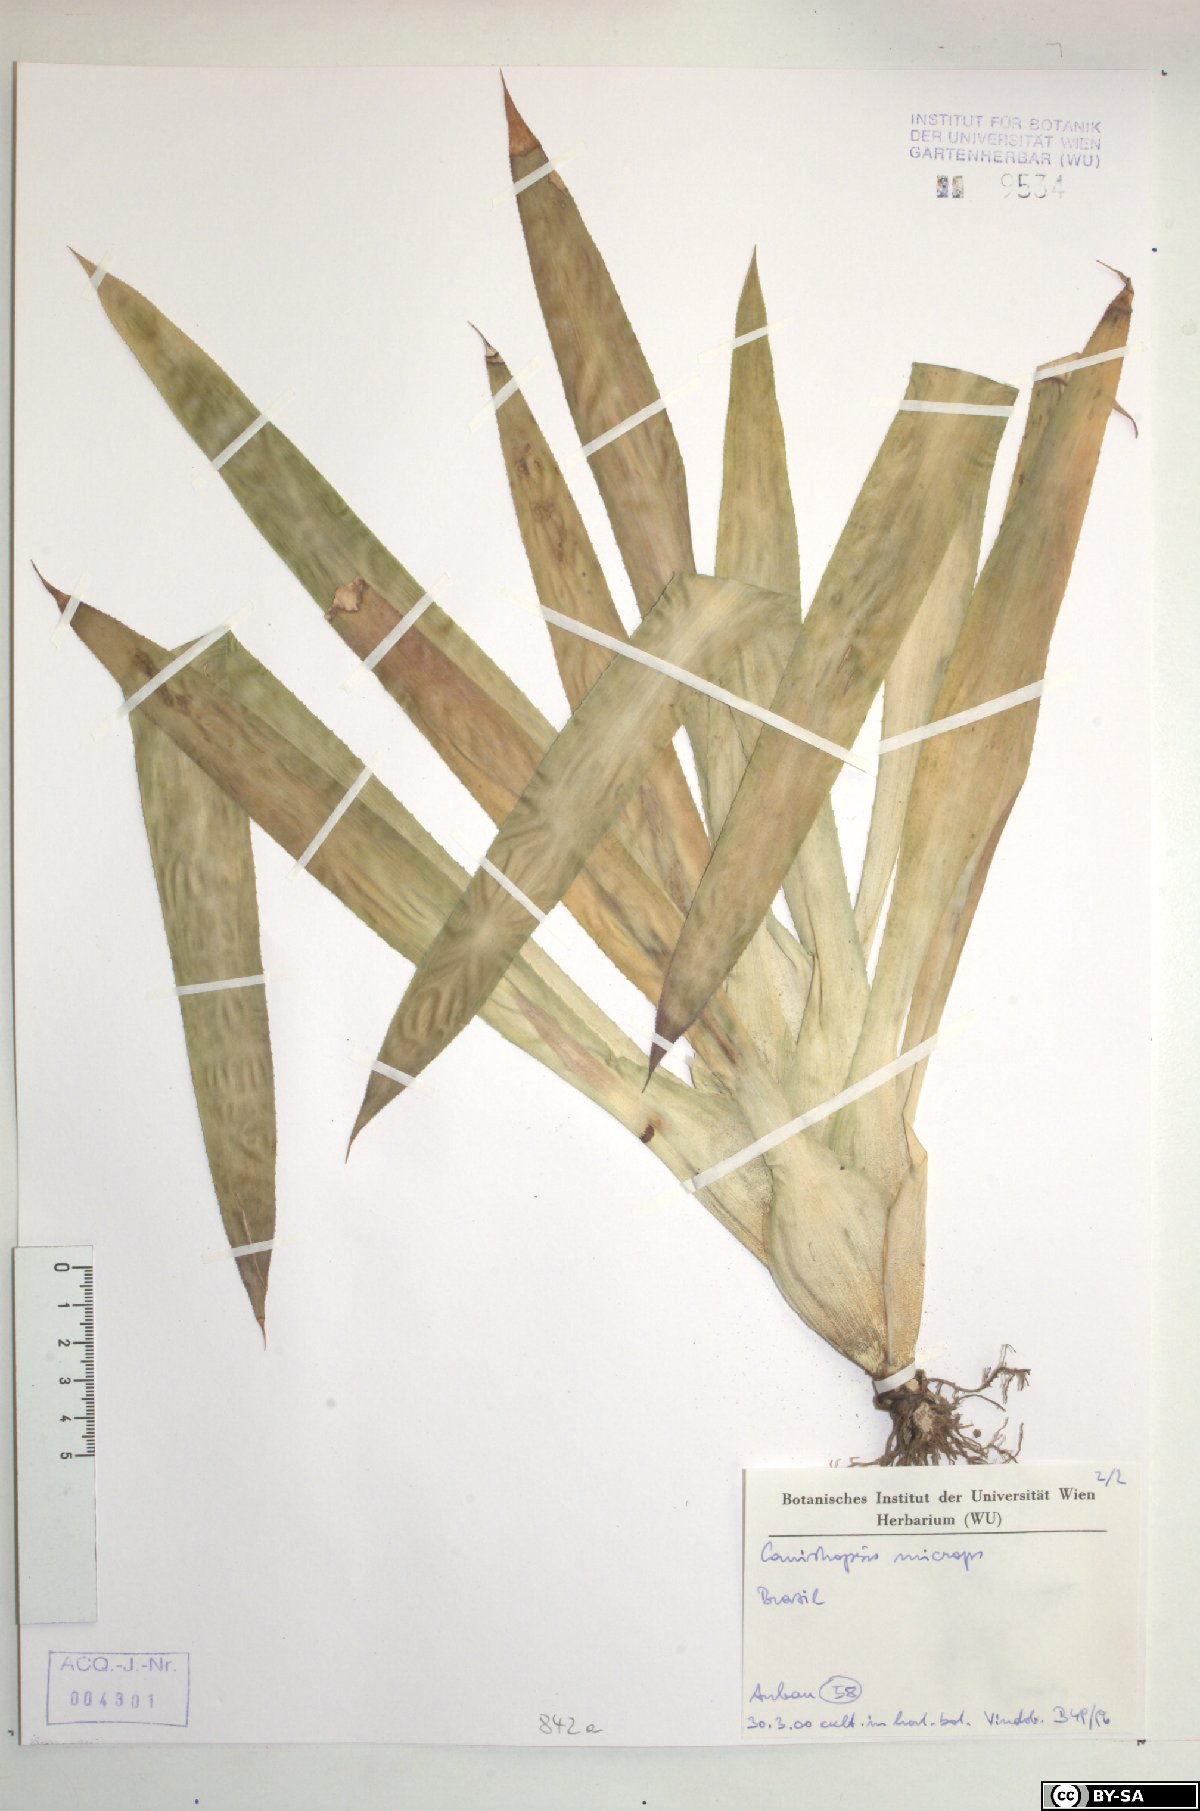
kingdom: Plantae
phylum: Tracheophyta
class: Liliopsida
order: Poales
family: Bromeliaceae
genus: Canistropsis
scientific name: Canistropsis microps
